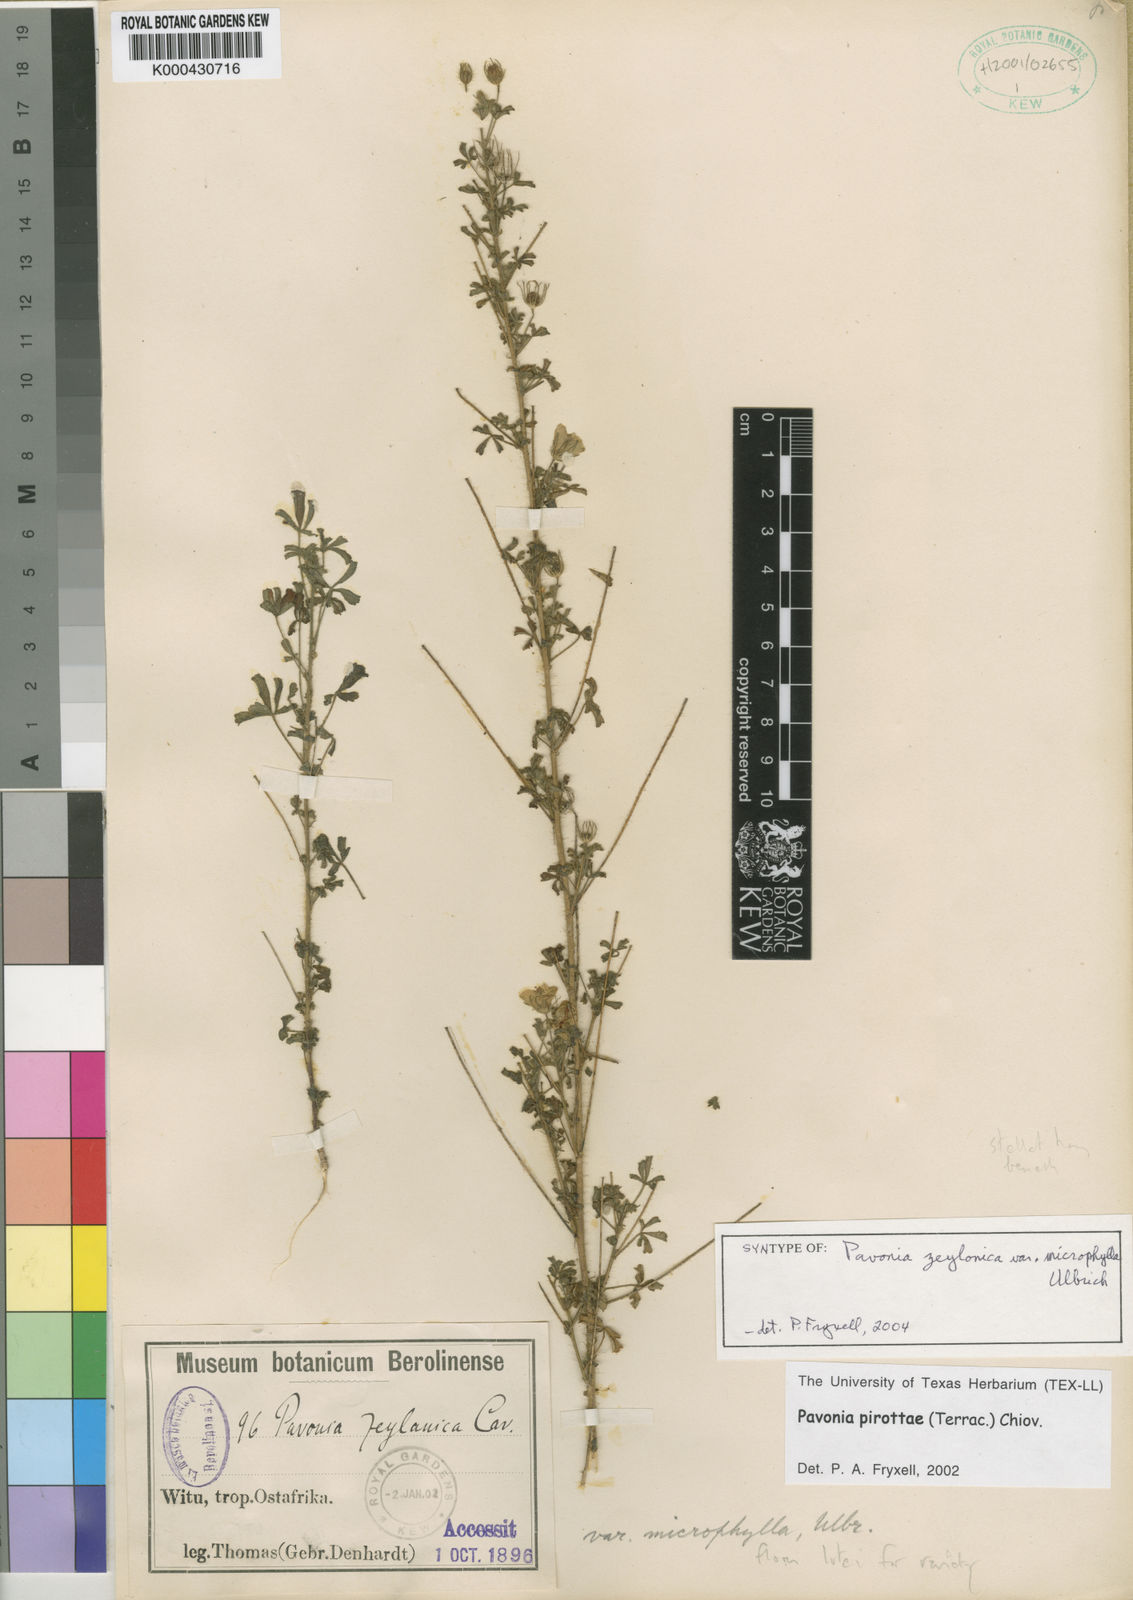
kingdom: Plantae
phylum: Tracheophyta
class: Magnoliopsida
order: Malvales
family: Malvaceae
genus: Pavonia
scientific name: Pavonia
